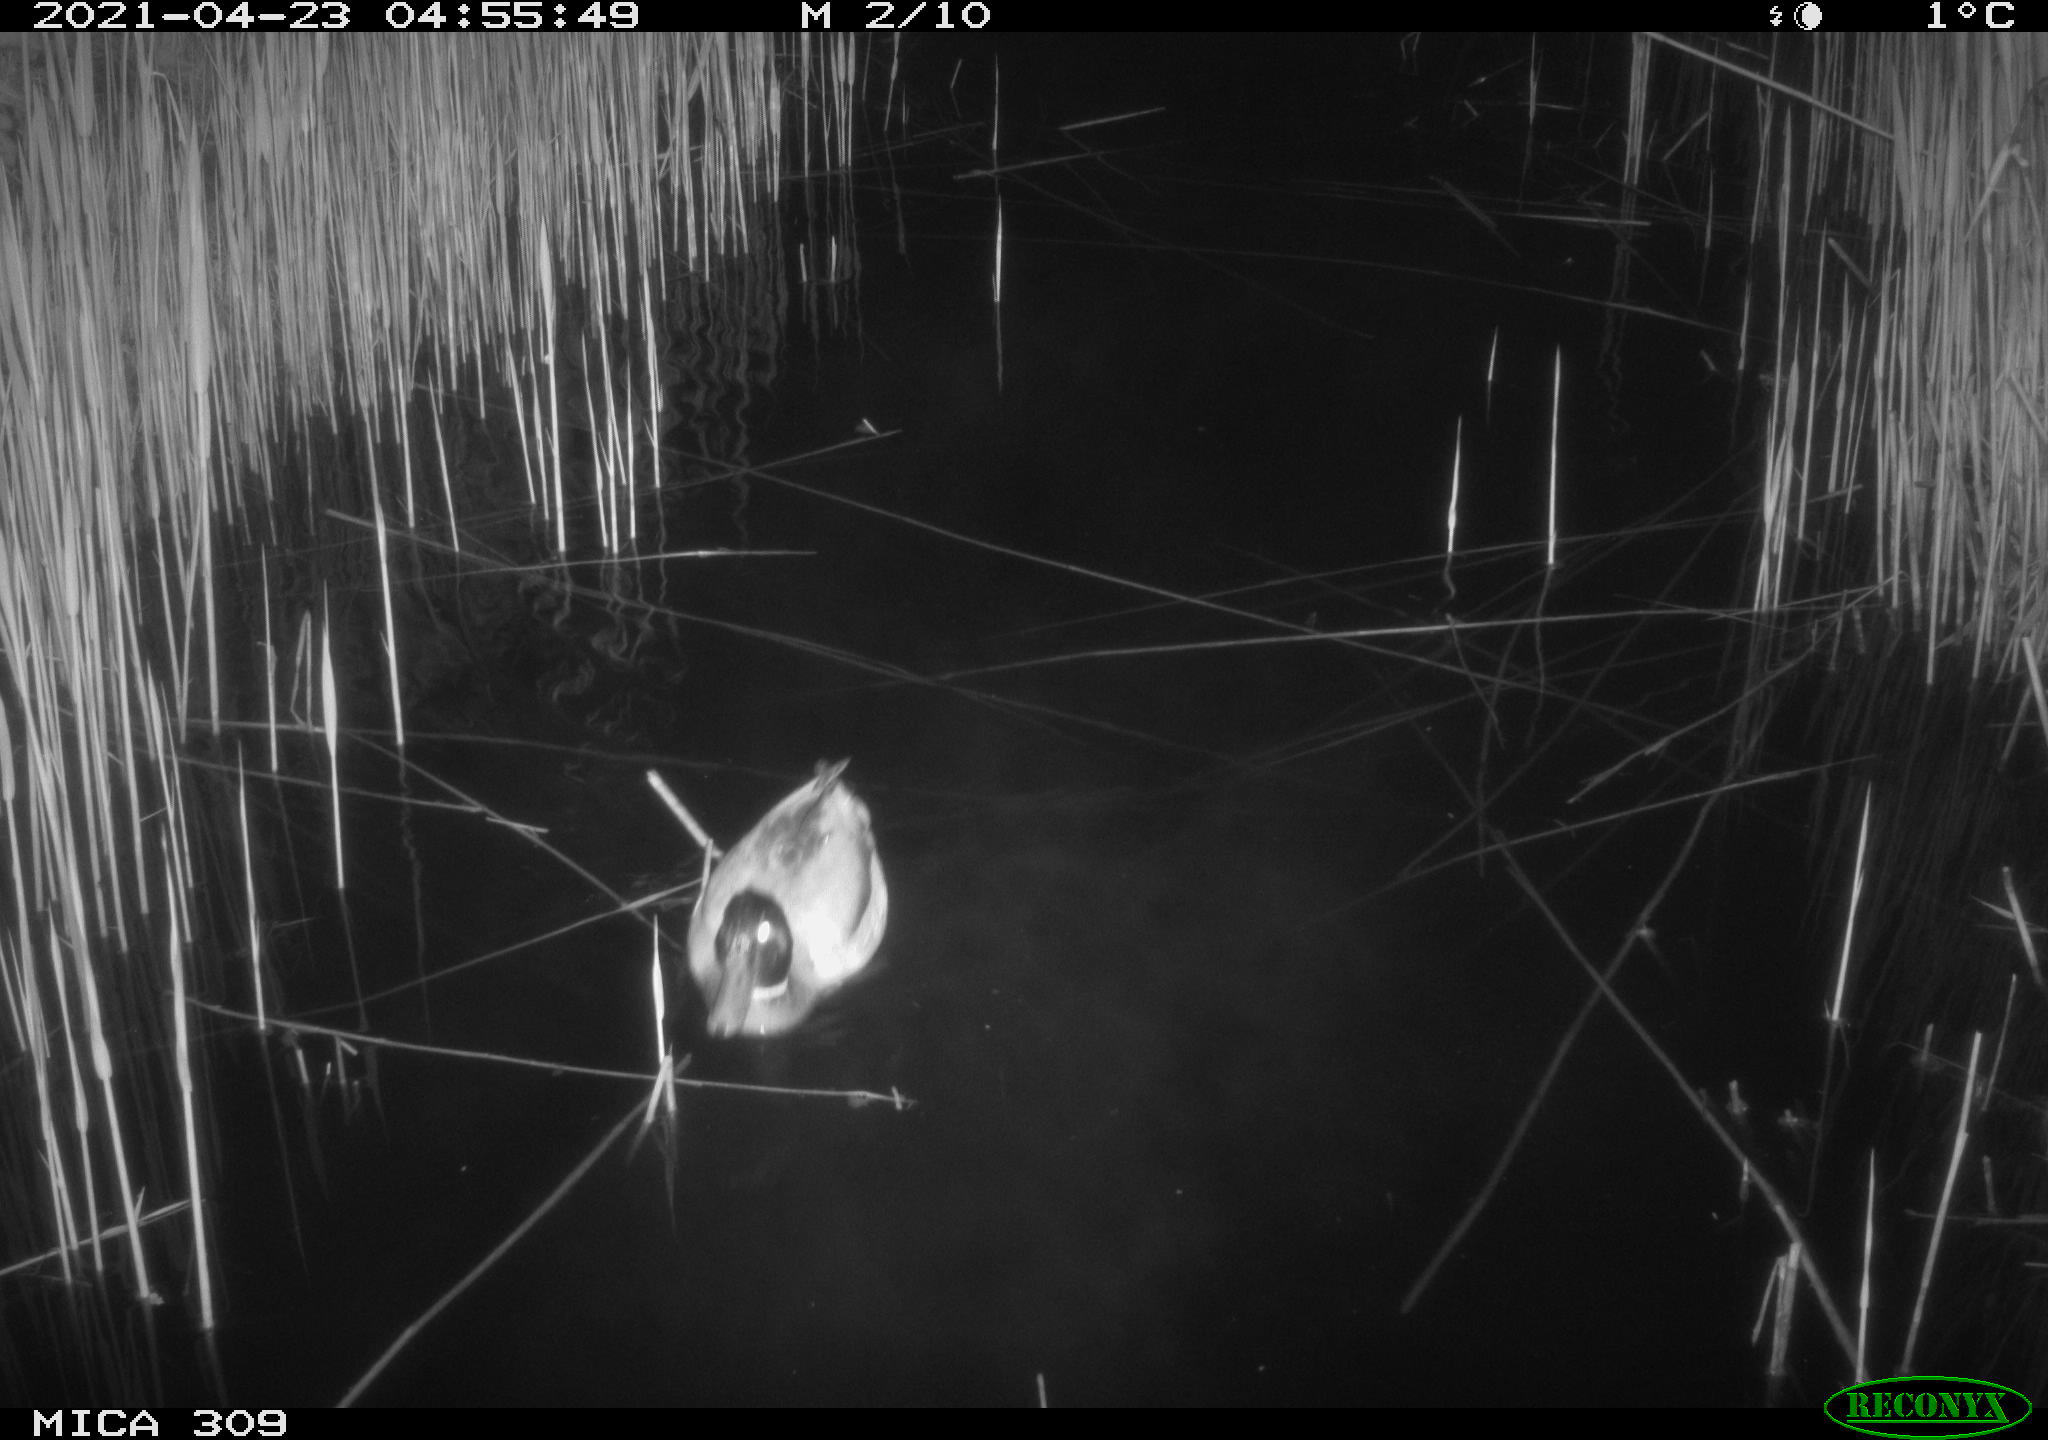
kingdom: Animalia
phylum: Chordata
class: Aves
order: Anseriformes
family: Anatidae
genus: Anas
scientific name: Anas platyrhynchos
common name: Mallard
